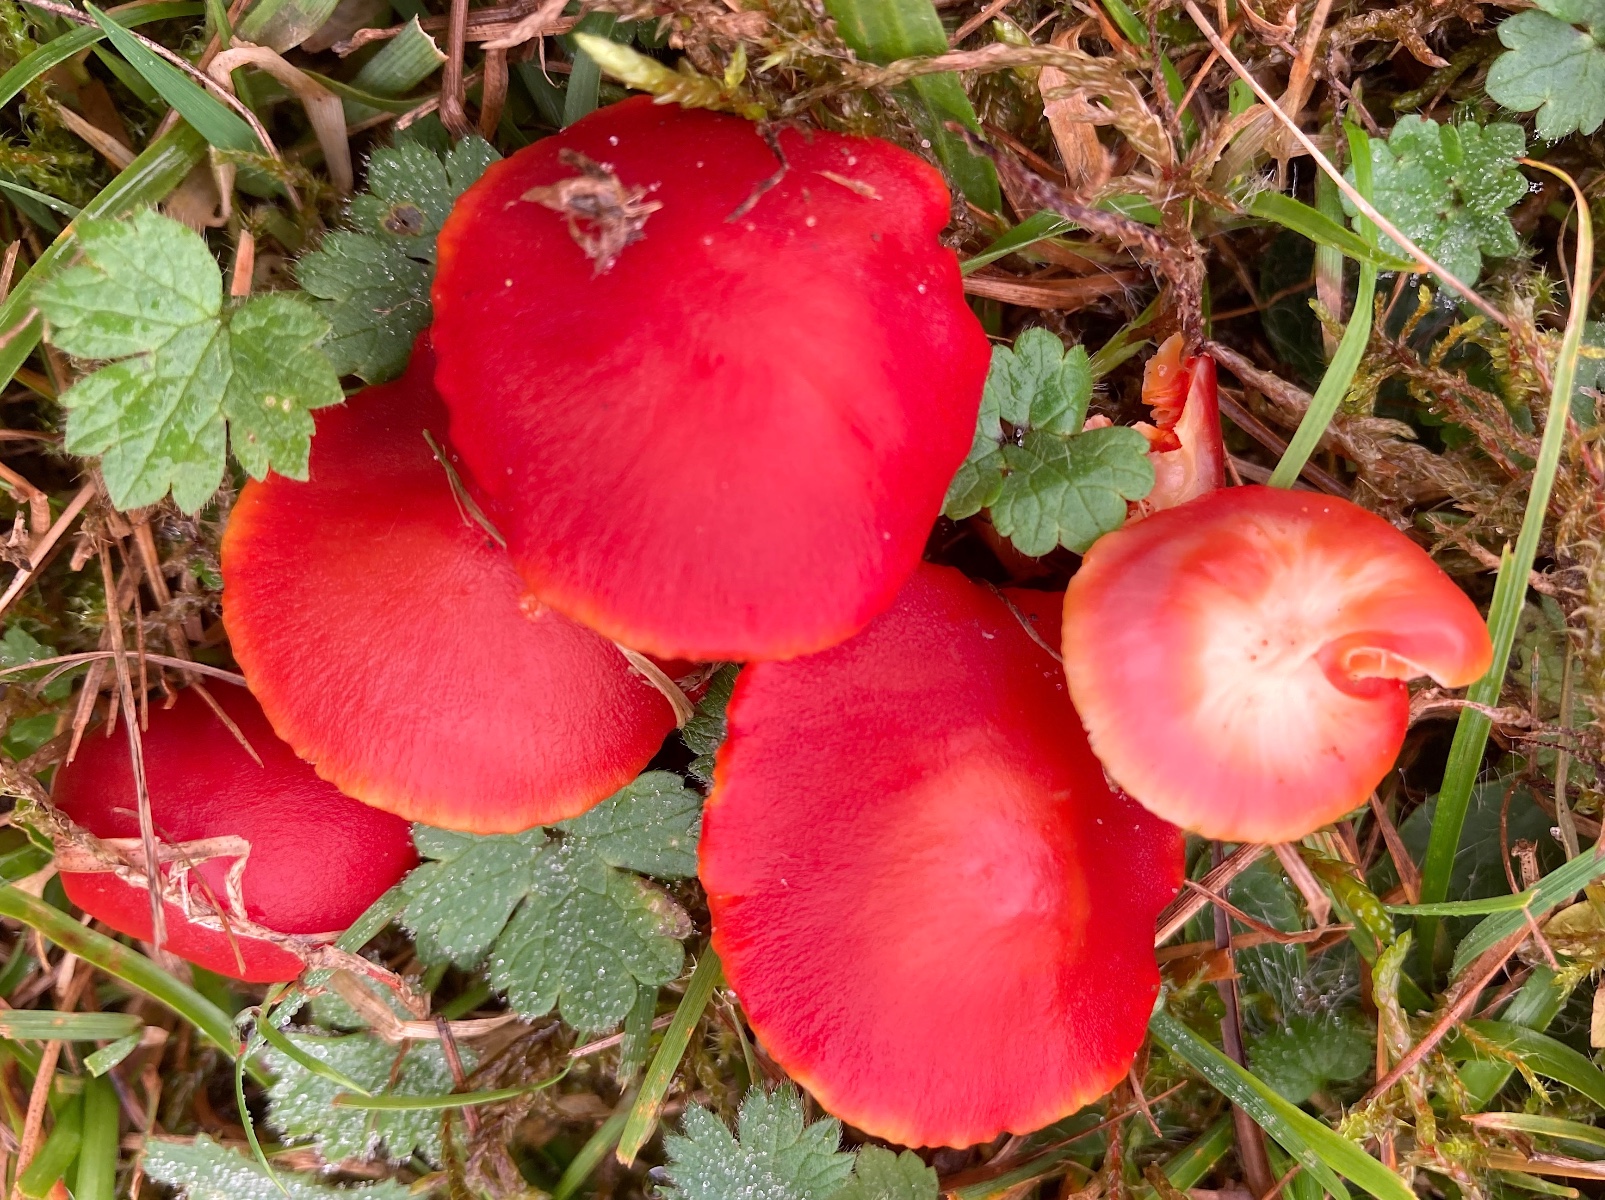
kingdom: Fungi
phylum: Basidiomycota
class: Agaricomycetes
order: Agaricales
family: Hygrophoraceae
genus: Hygrocybe
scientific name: Hygrocybe
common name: vokshat
